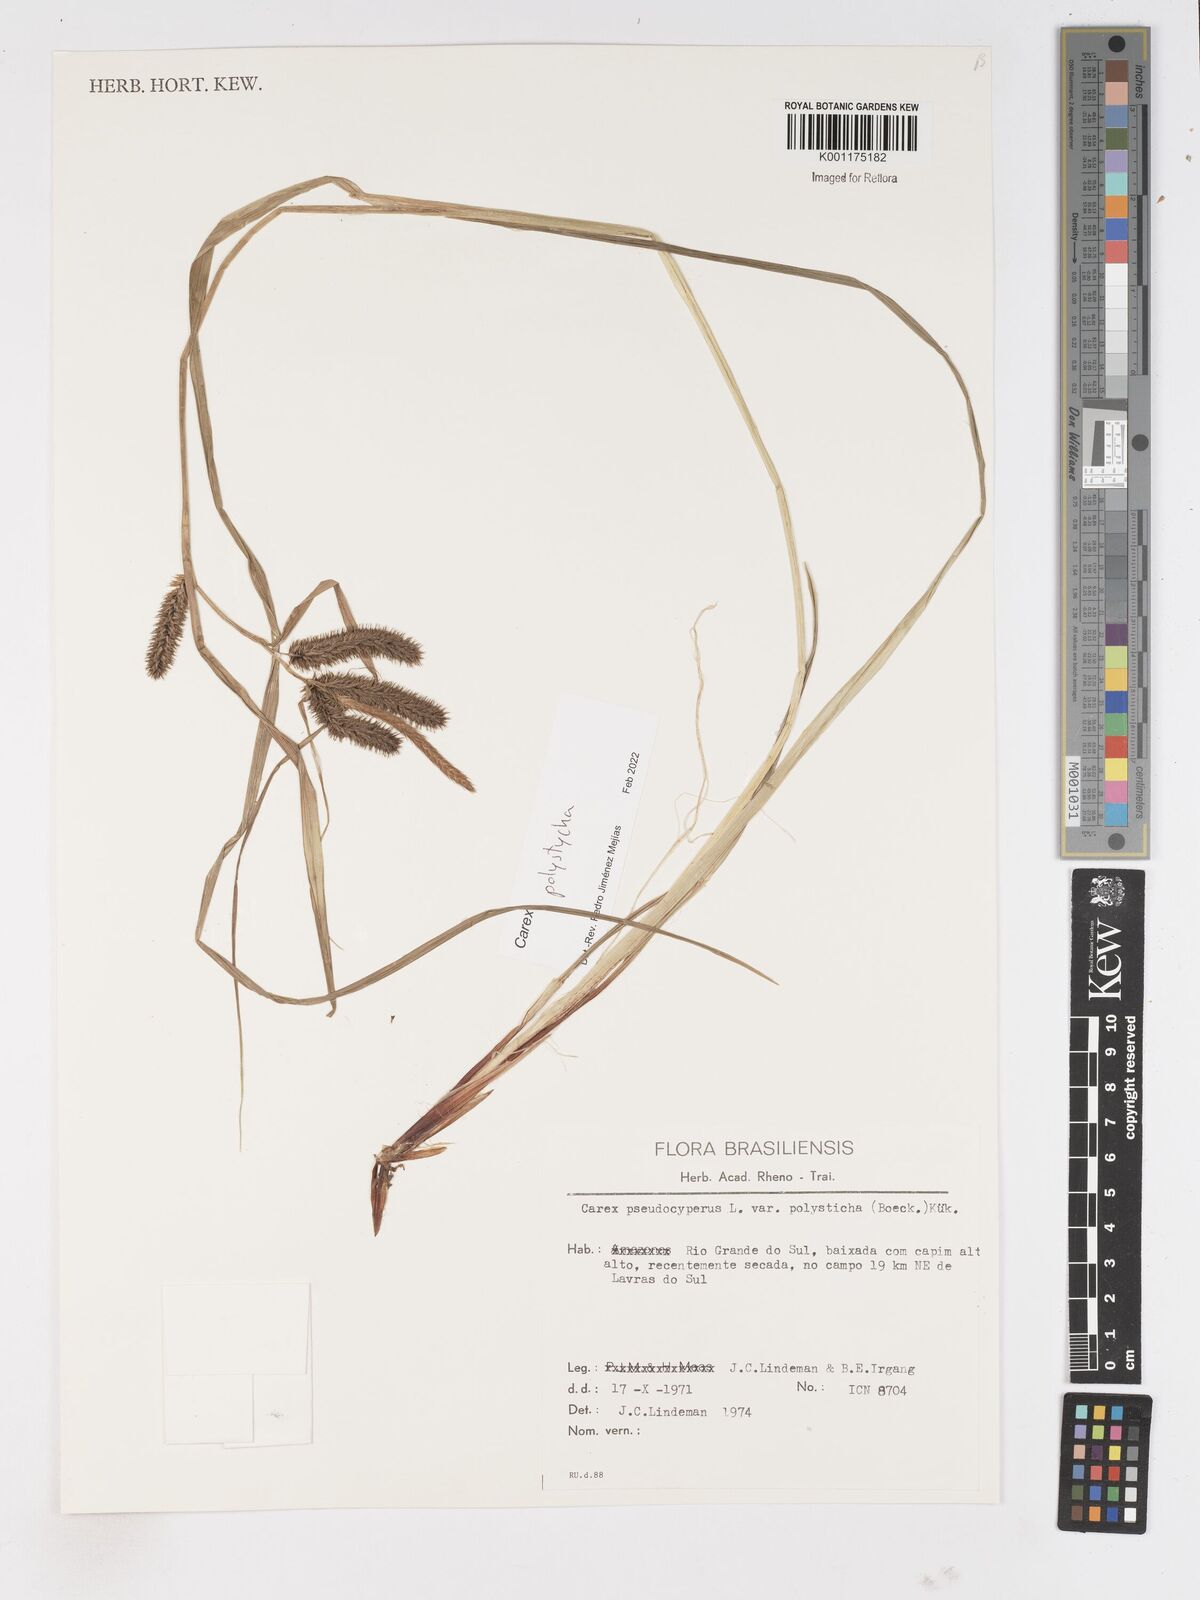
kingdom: Plantae
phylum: Tracheophyta
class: Liliopsida
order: Poales
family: Cyperaceae
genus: Carex
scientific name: Carex polysticha
